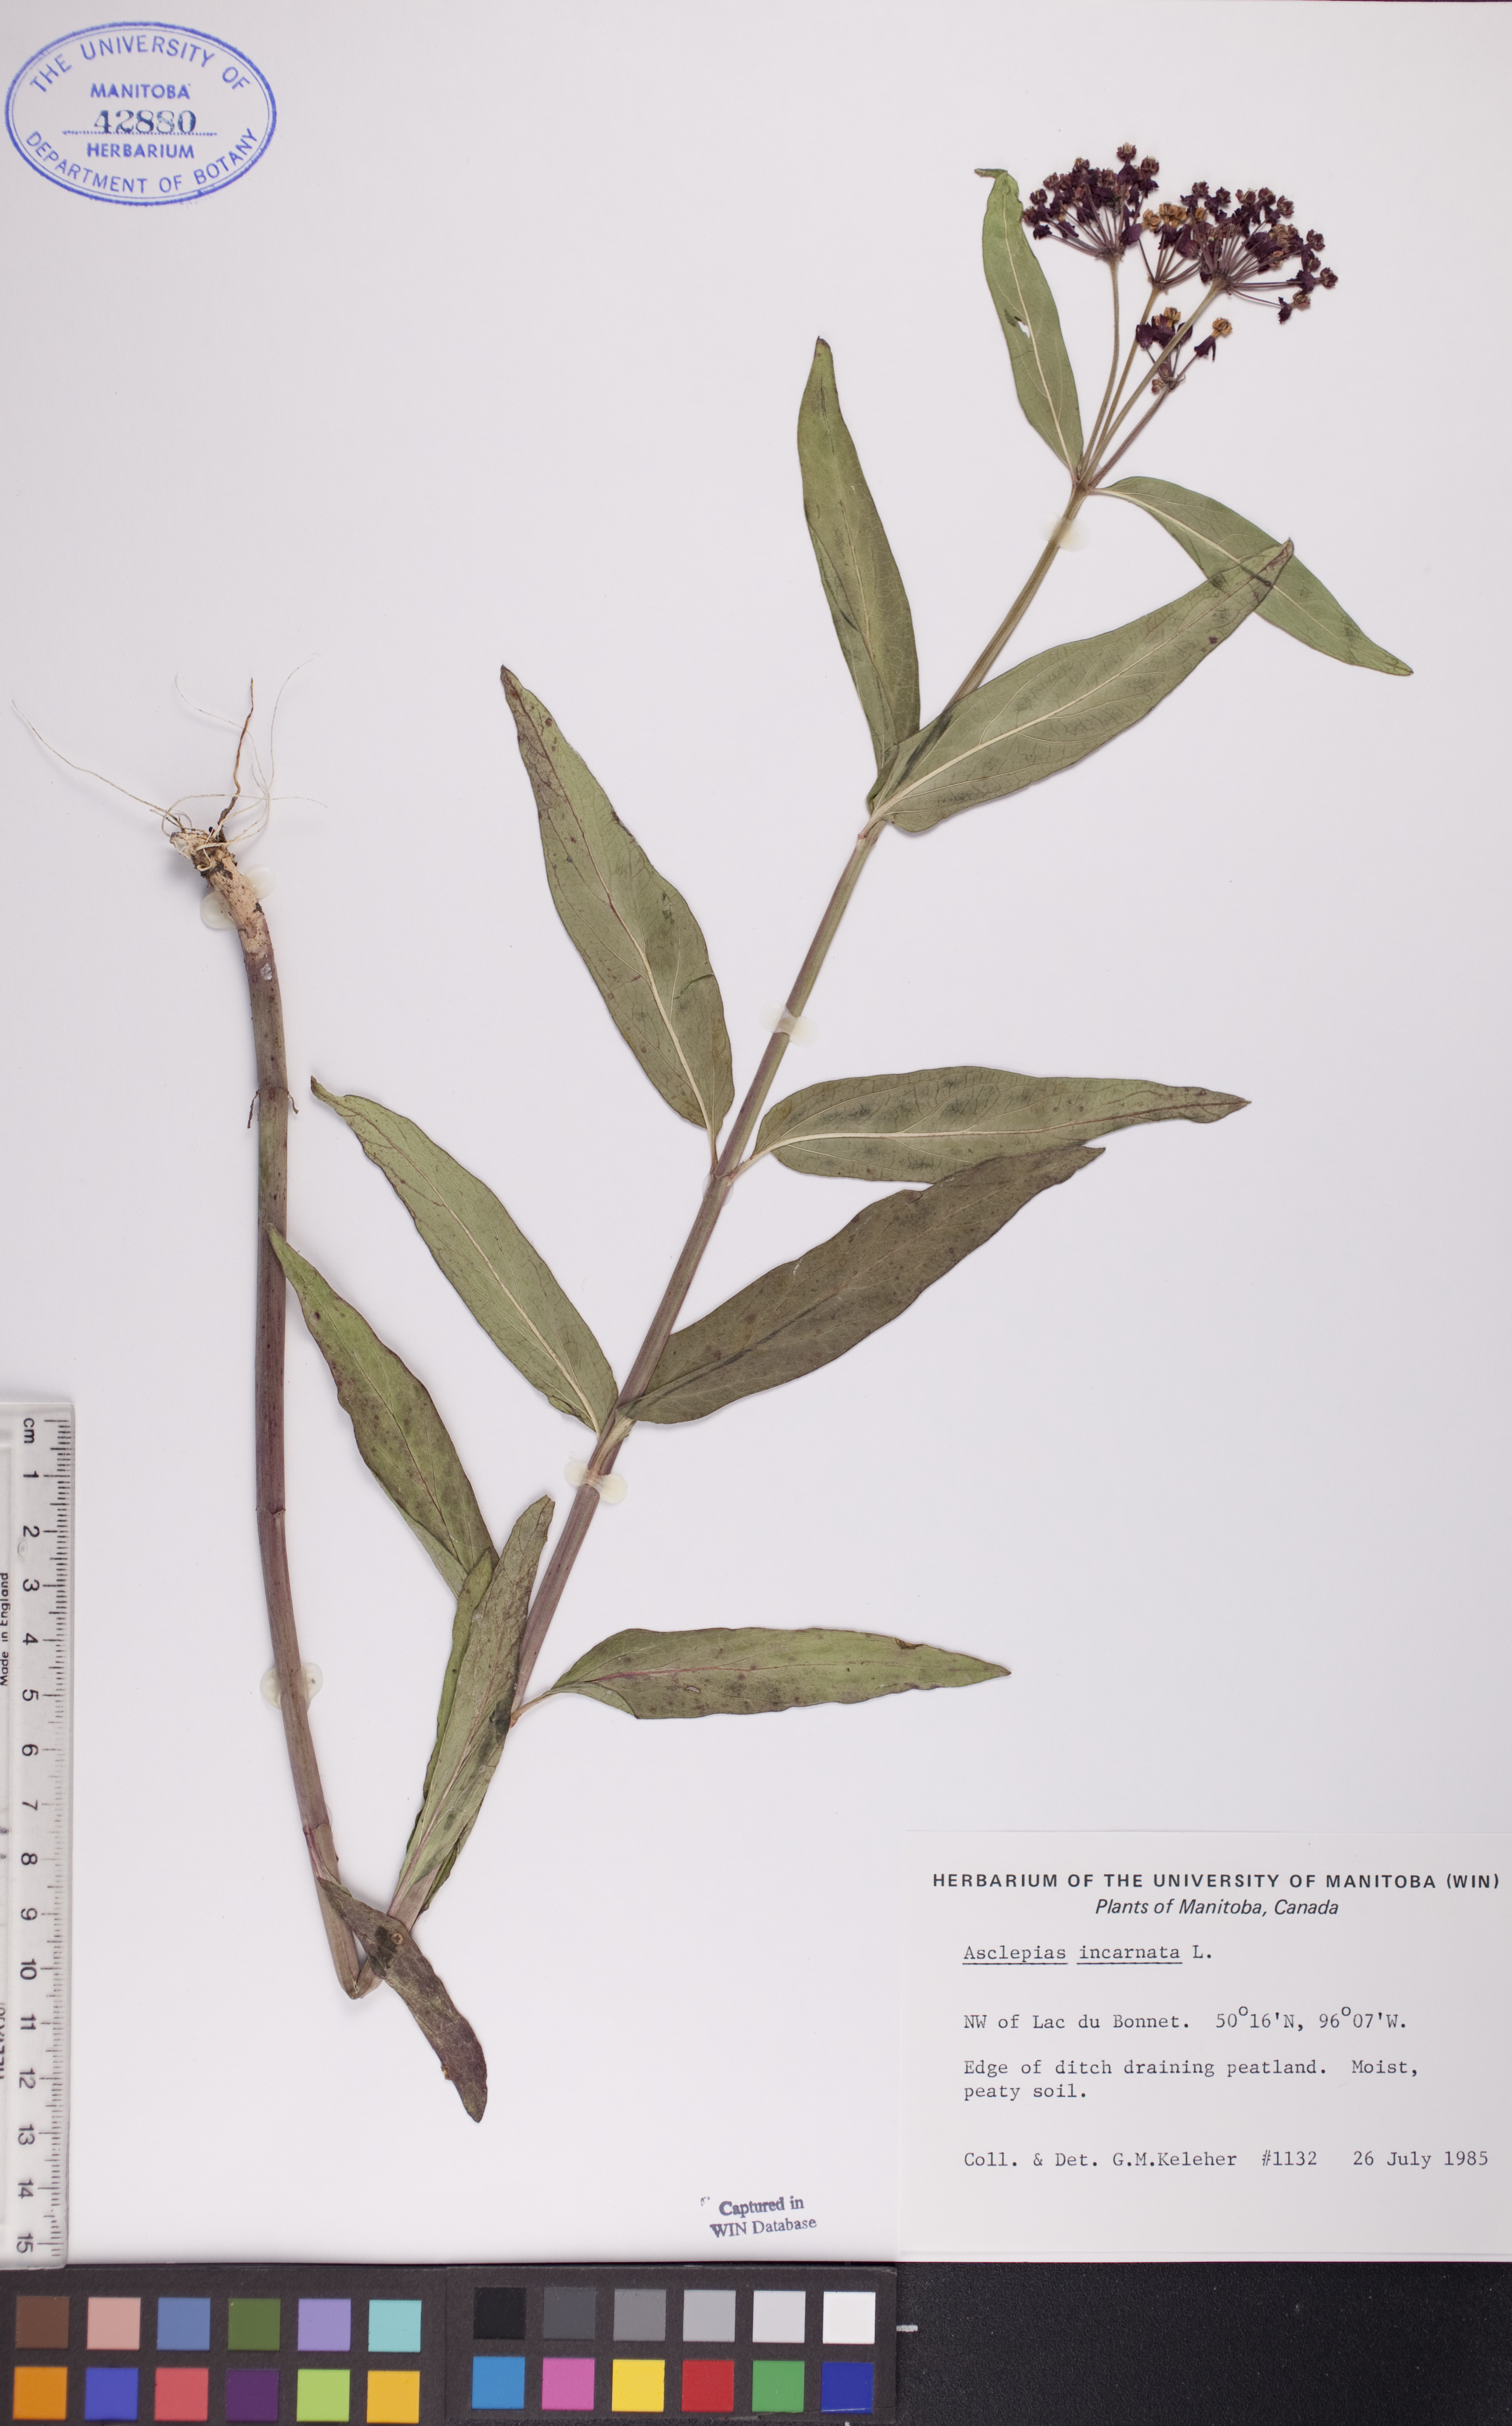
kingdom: Plantae
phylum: Tracheophyta
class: Magnoliopsida
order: Gentianales
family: Apocynaceae
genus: Asclepias
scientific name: Asclepias incarnata
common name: Swamp milkweed
